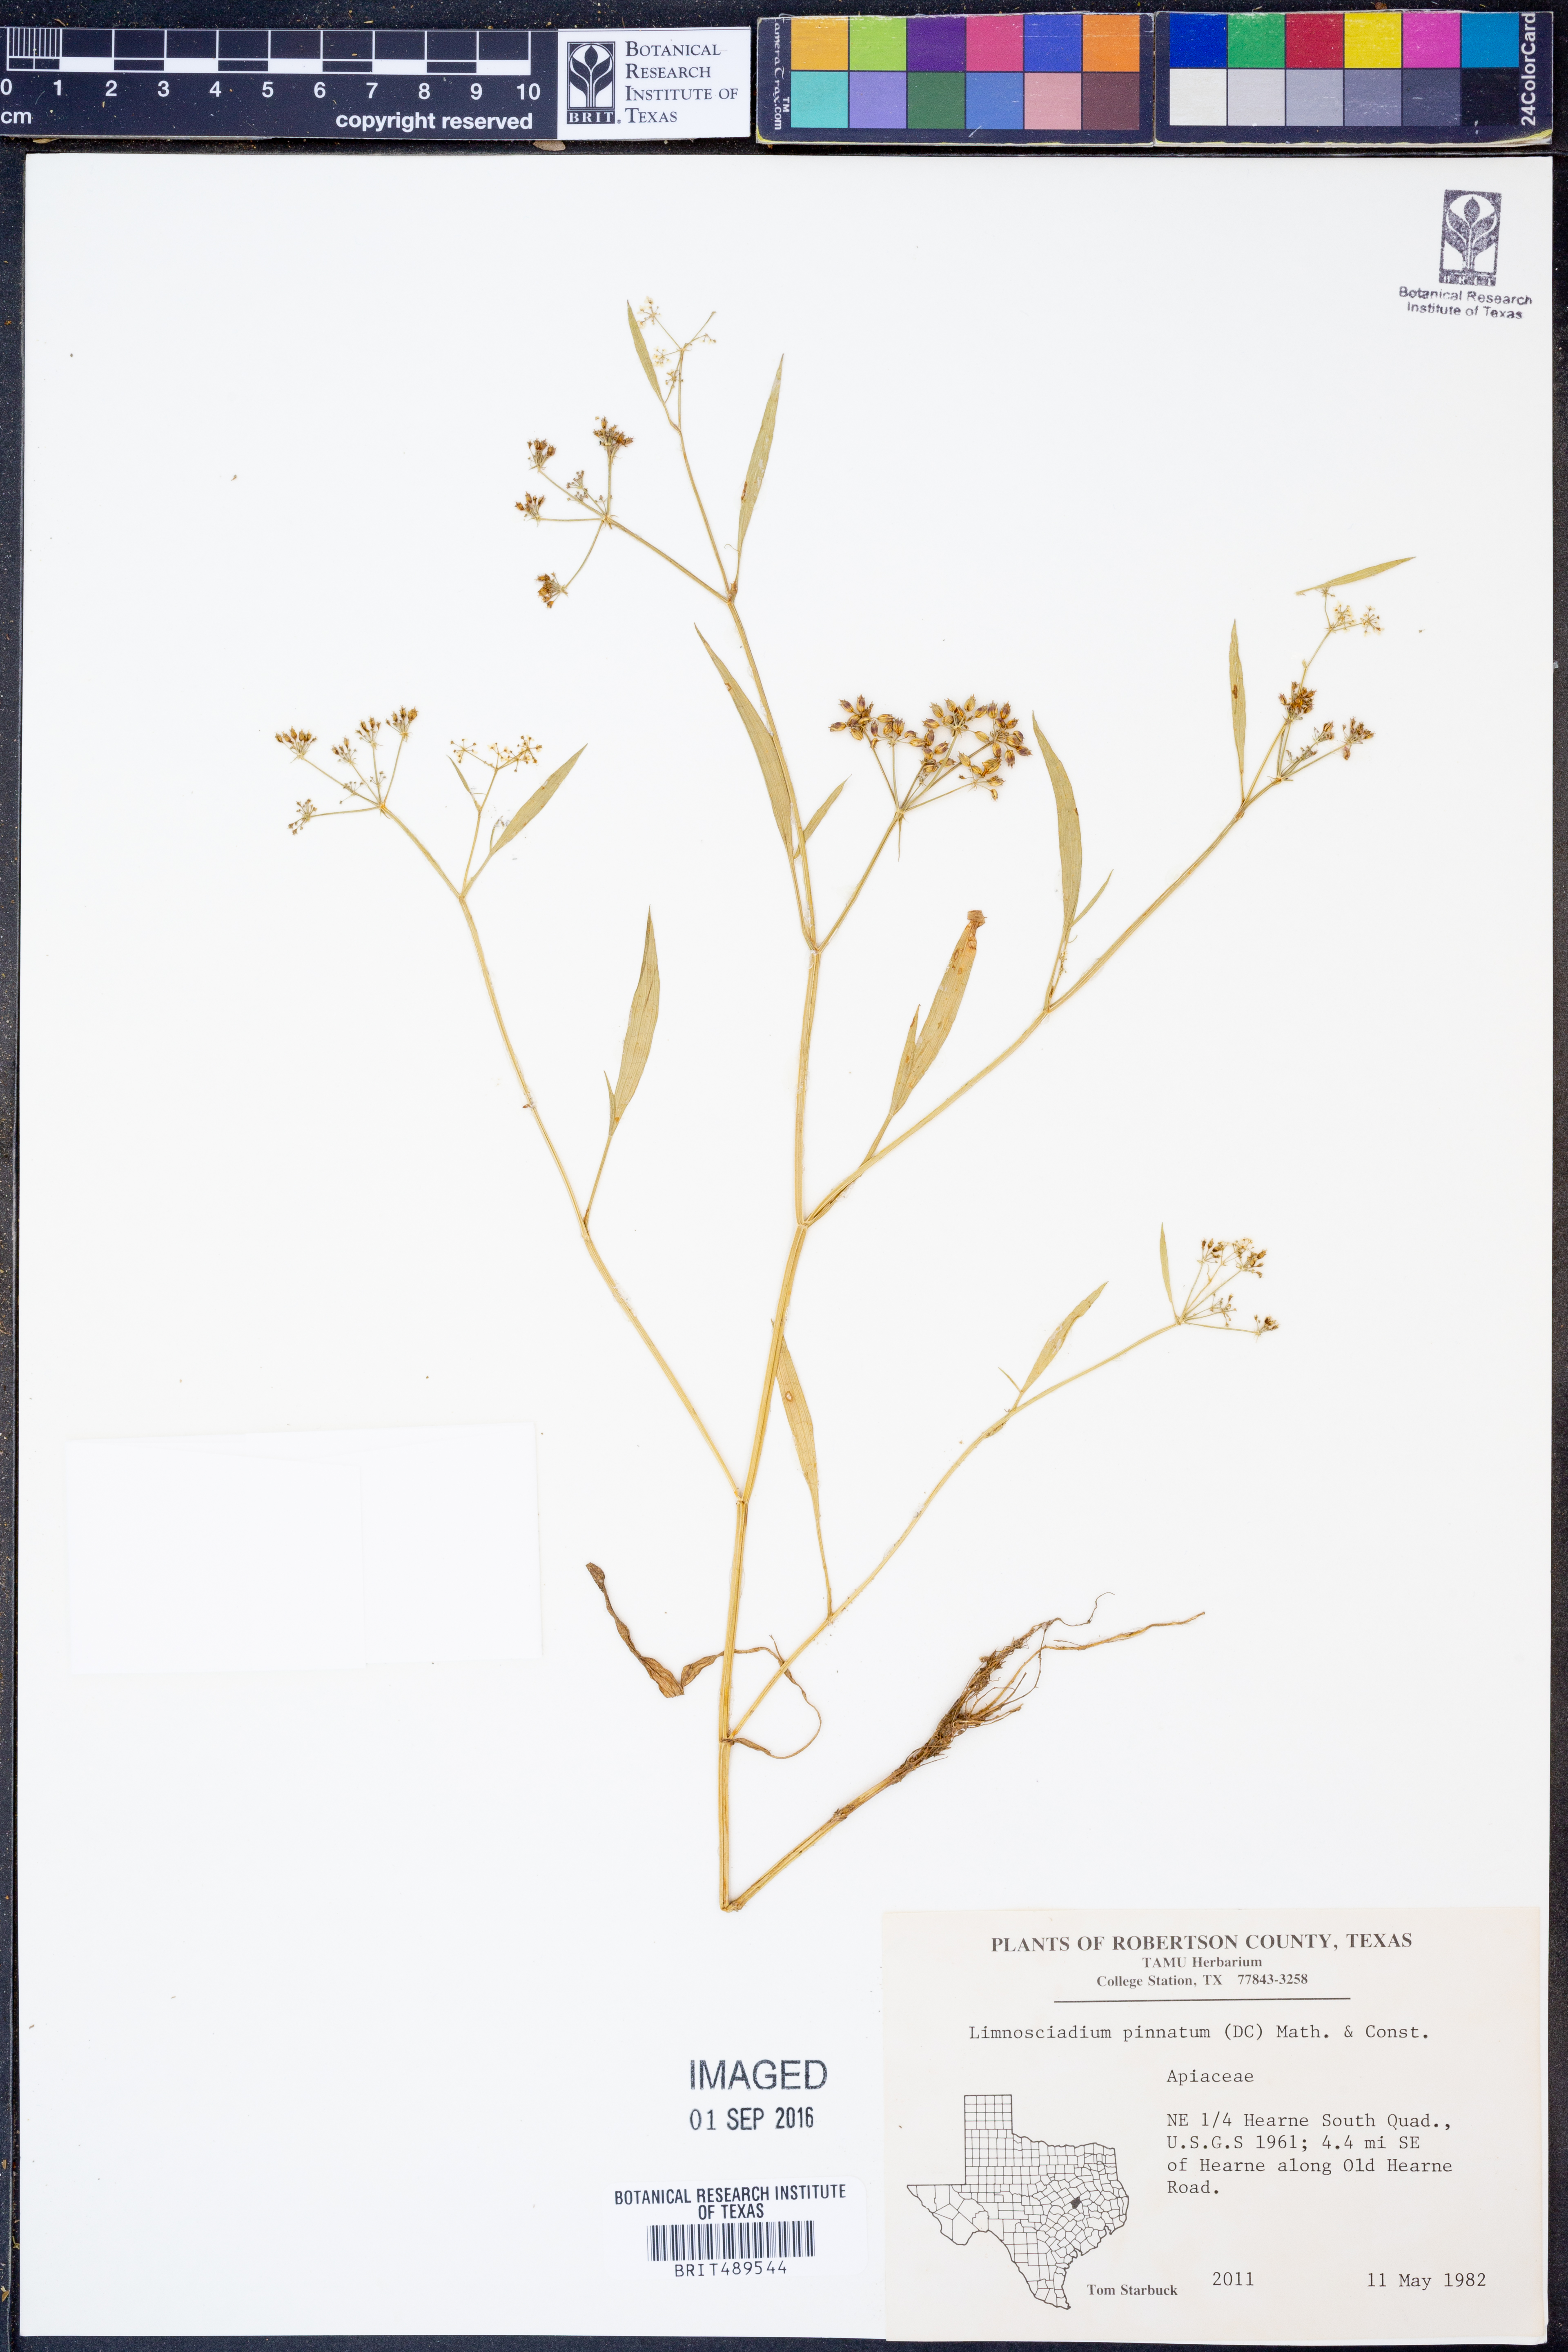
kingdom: Plantae
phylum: Tracheophyta
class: Magnoliopsida
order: Apiales
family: Apiaceae
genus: Limnosciadium
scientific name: Limnosciadium pinnatum
